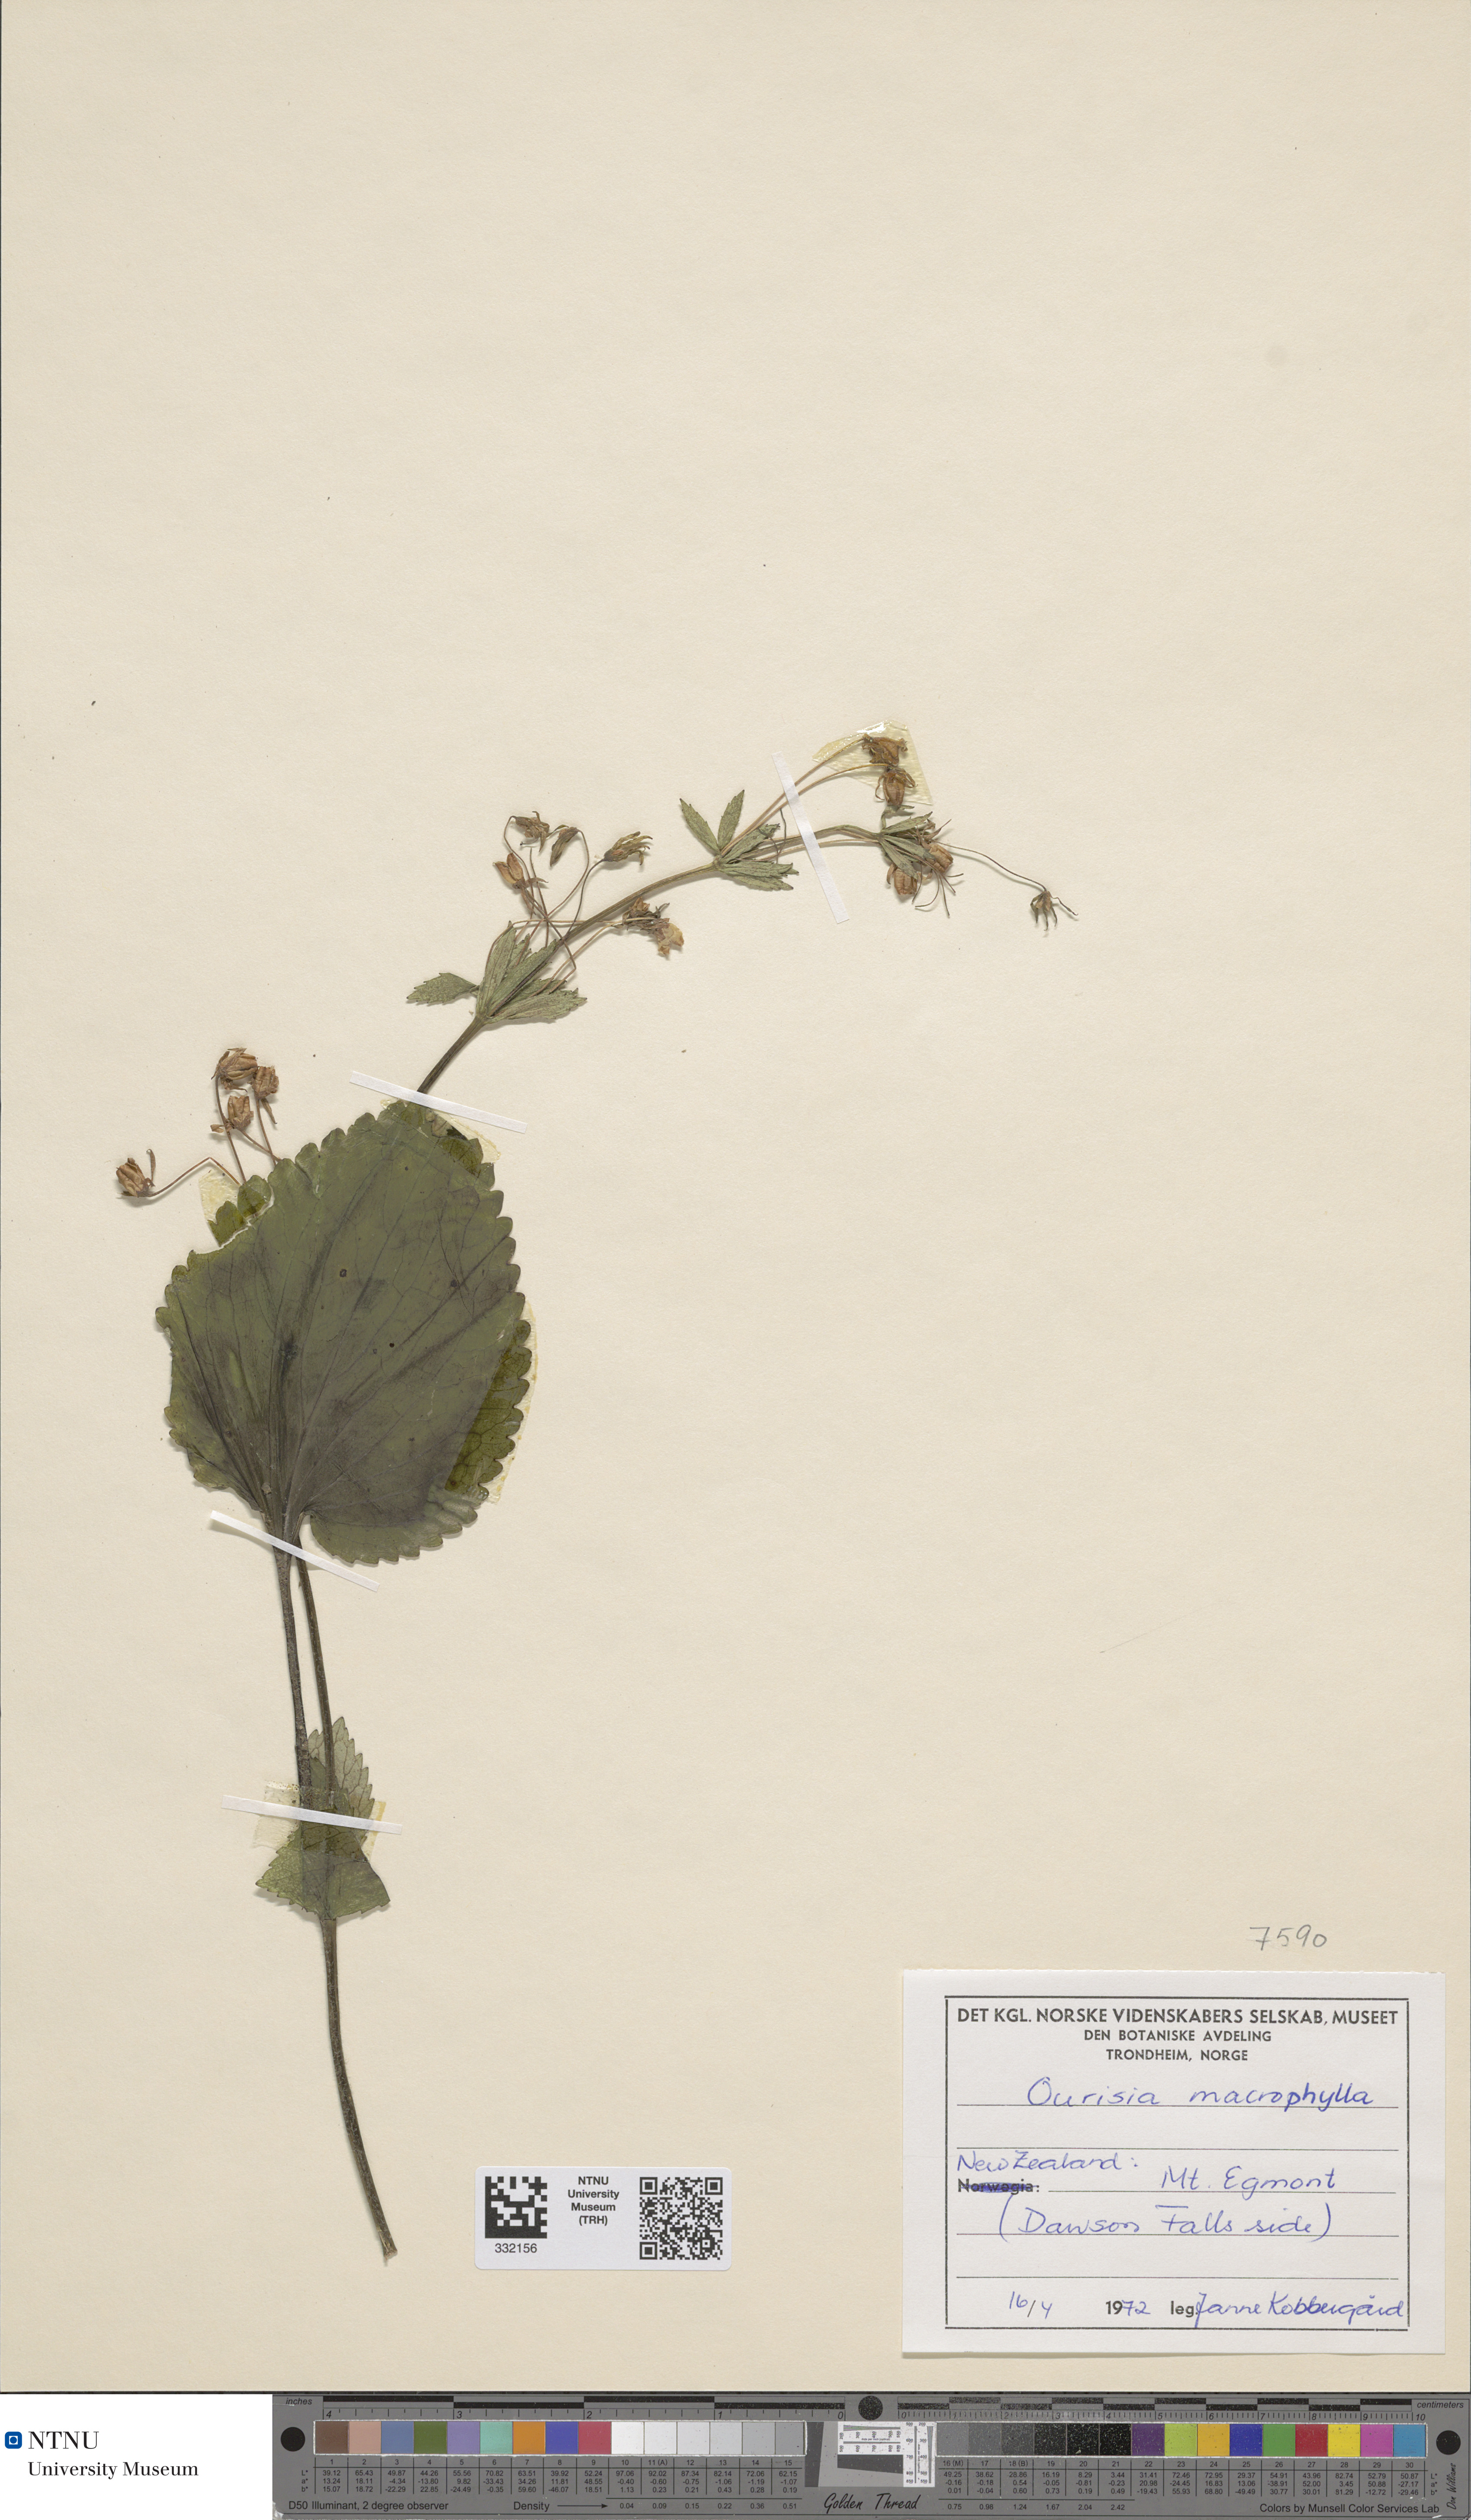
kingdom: Plantae
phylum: Tracheophyta
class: Magnoliopsida
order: Lamiales
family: Plantaginaceae
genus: Ourisia
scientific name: Ourisia macrophylla
